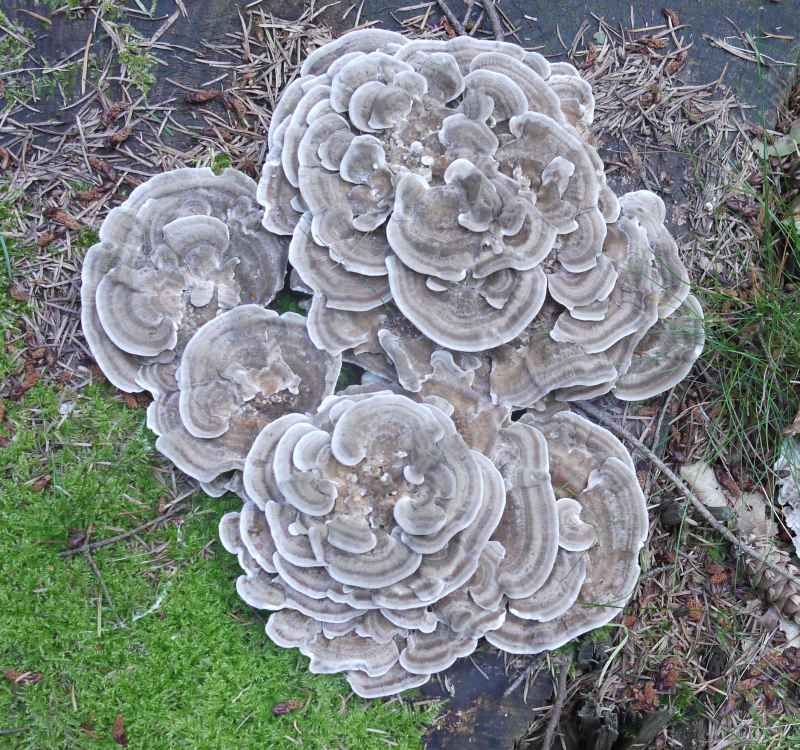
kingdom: Fungi
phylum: Basidiomycota
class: Agaricomycetes
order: Polyporales
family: Polyporaceae
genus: Trametes
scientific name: Trametes versicolor
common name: broget læderporesvamp
